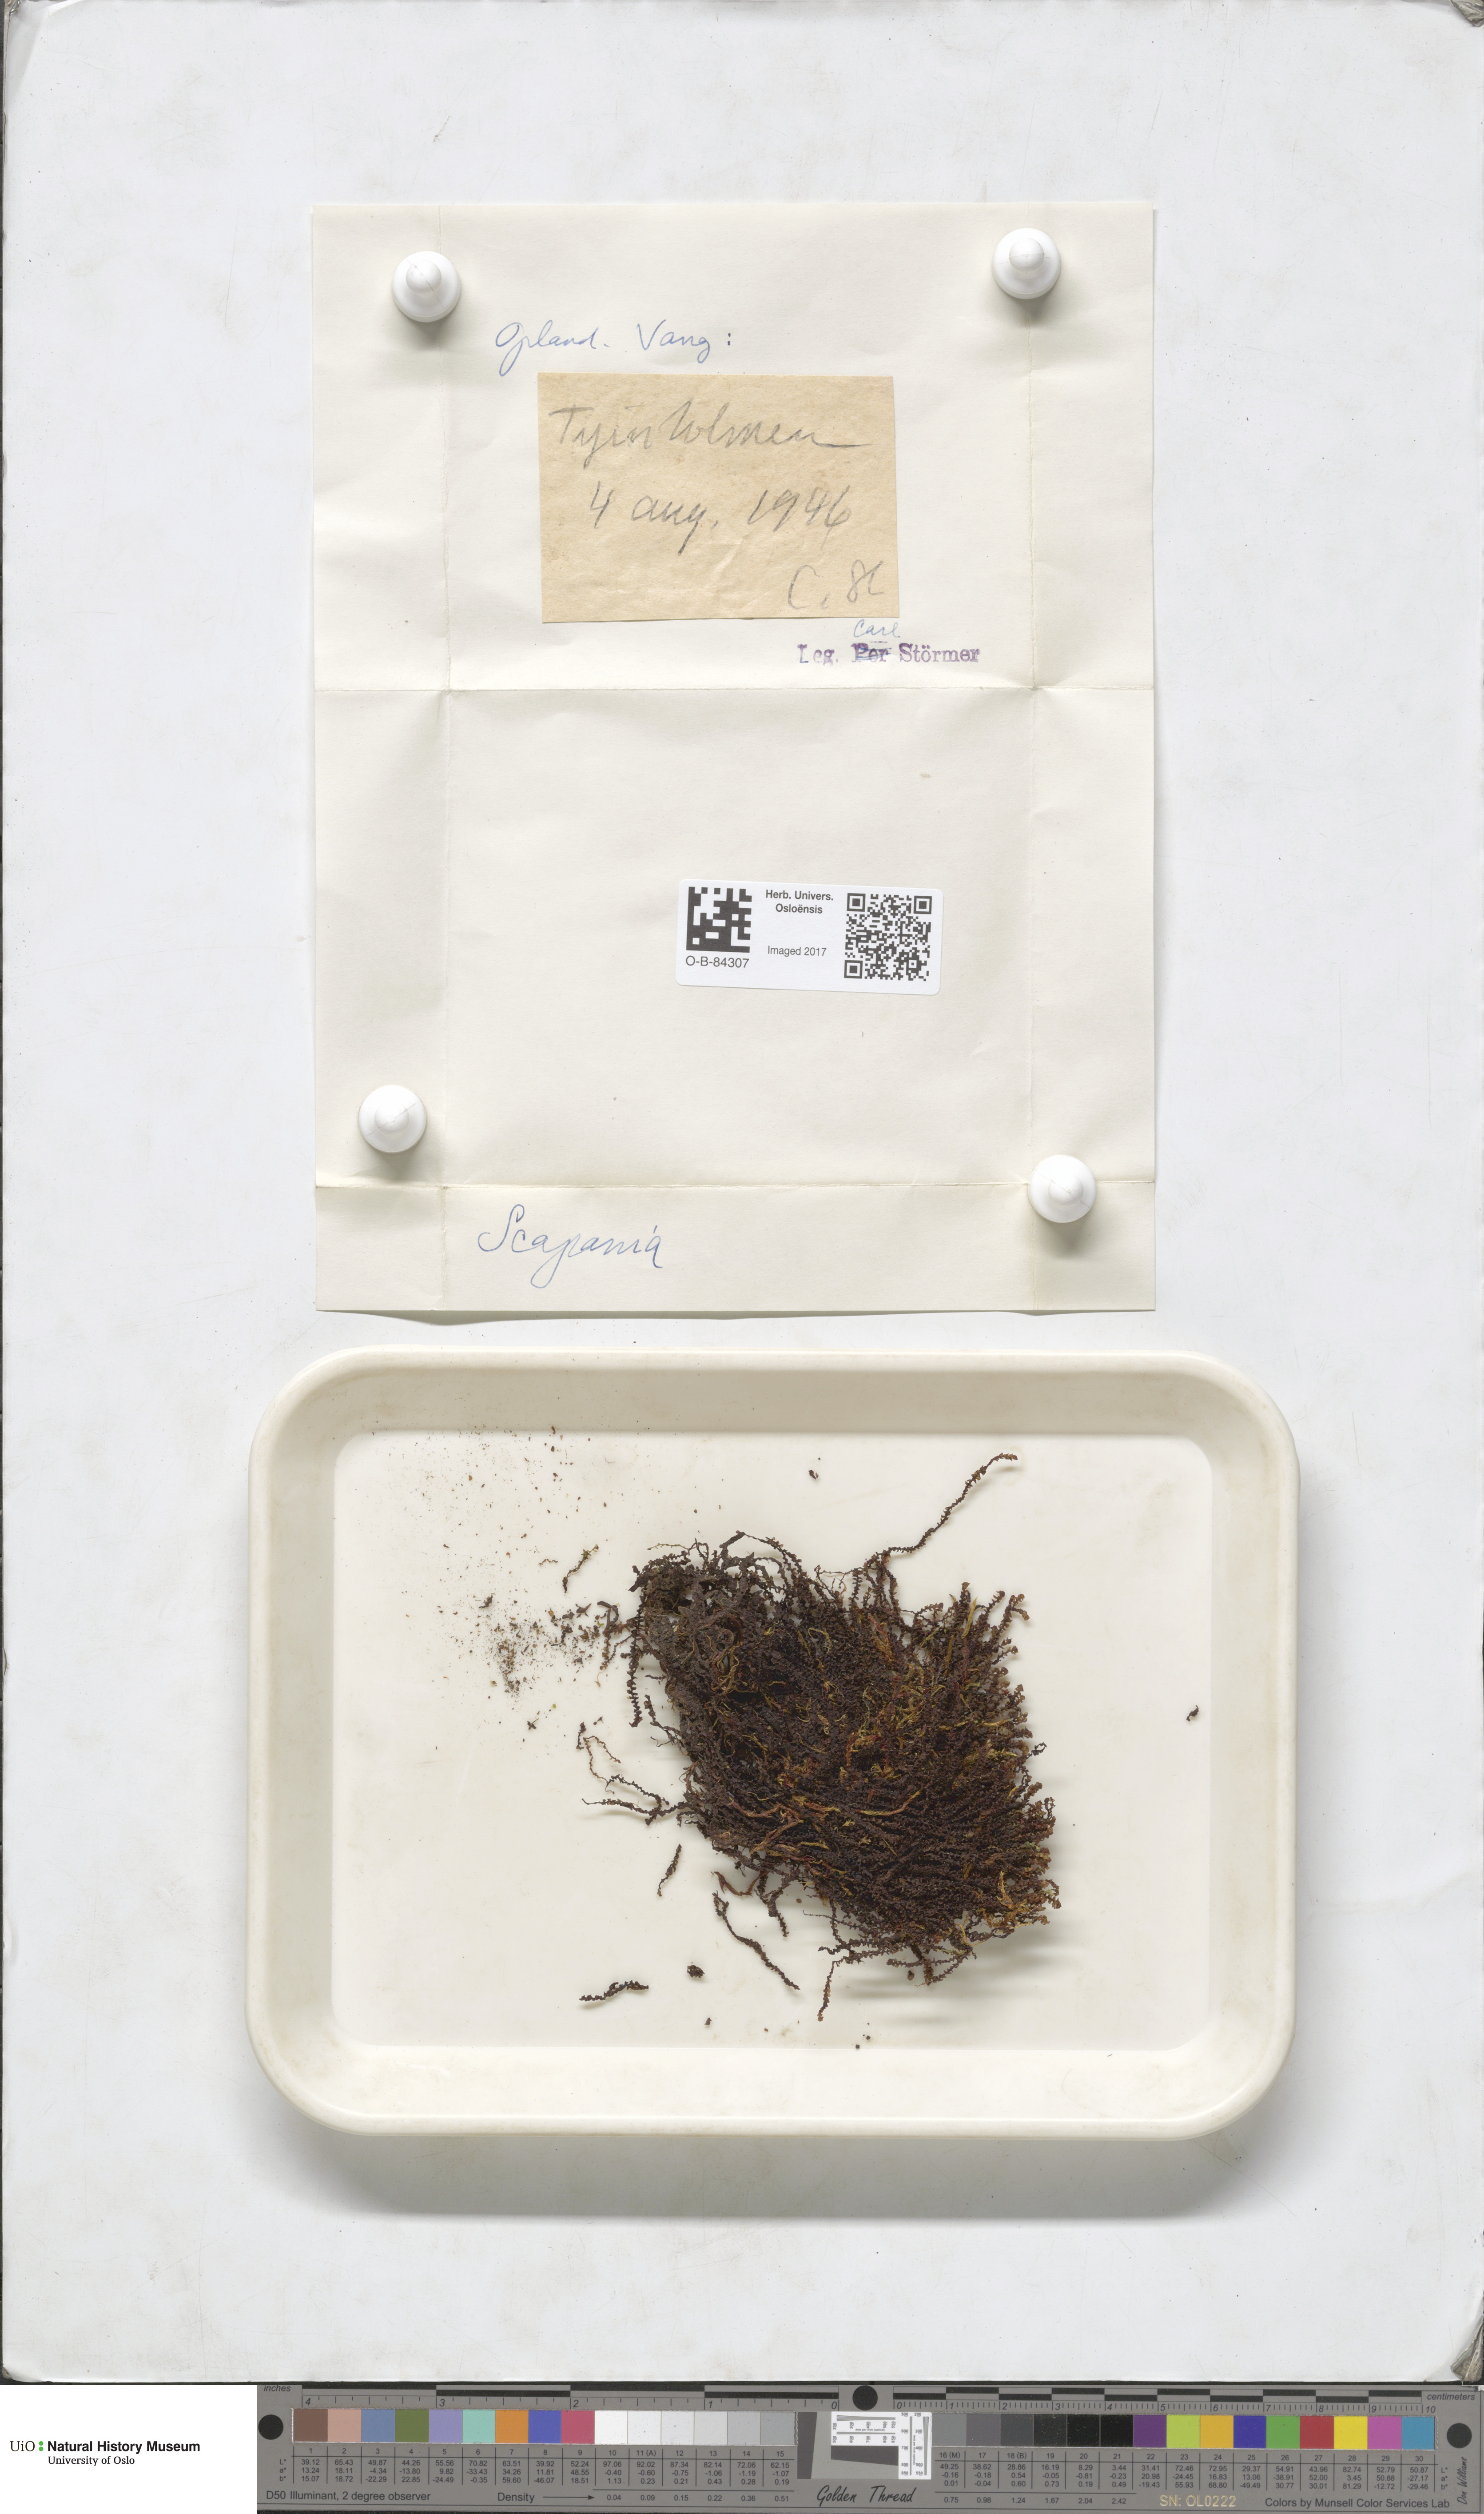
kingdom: Plantae
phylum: Marchantiophyta
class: Jungermanniopsida
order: Jungermanniales
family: Scapaniaceae
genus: Scapania
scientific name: Scapania
